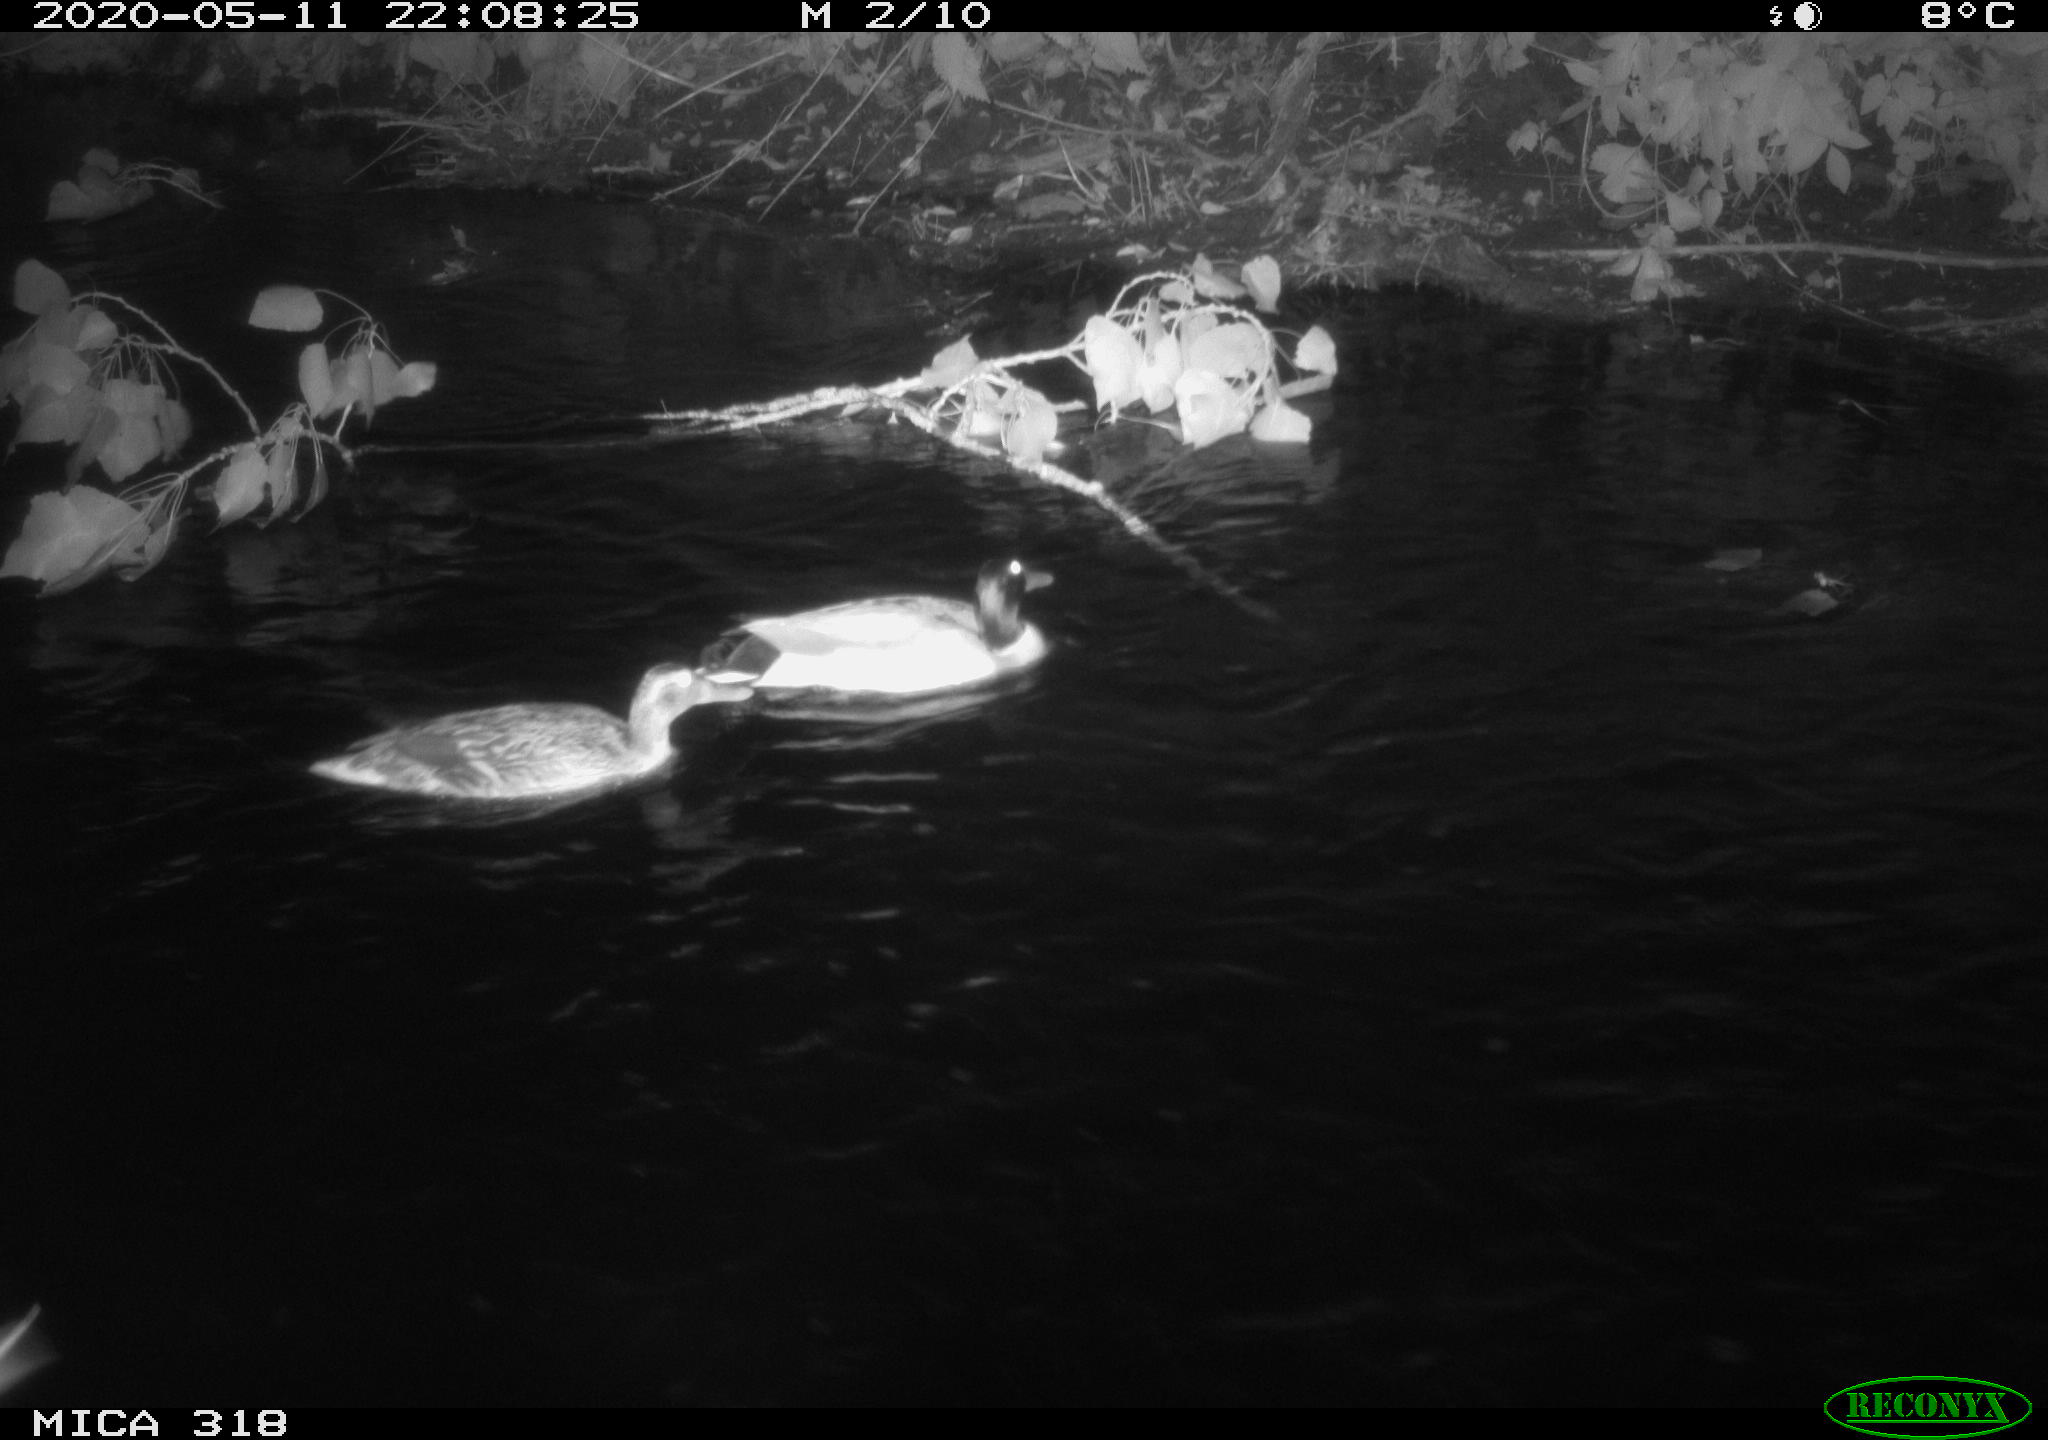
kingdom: Animalia
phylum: Chordata
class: Aves
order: Anseriformes
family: Anatidae
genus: Anas
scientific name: Anas platyrhynchos
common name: Mallard
